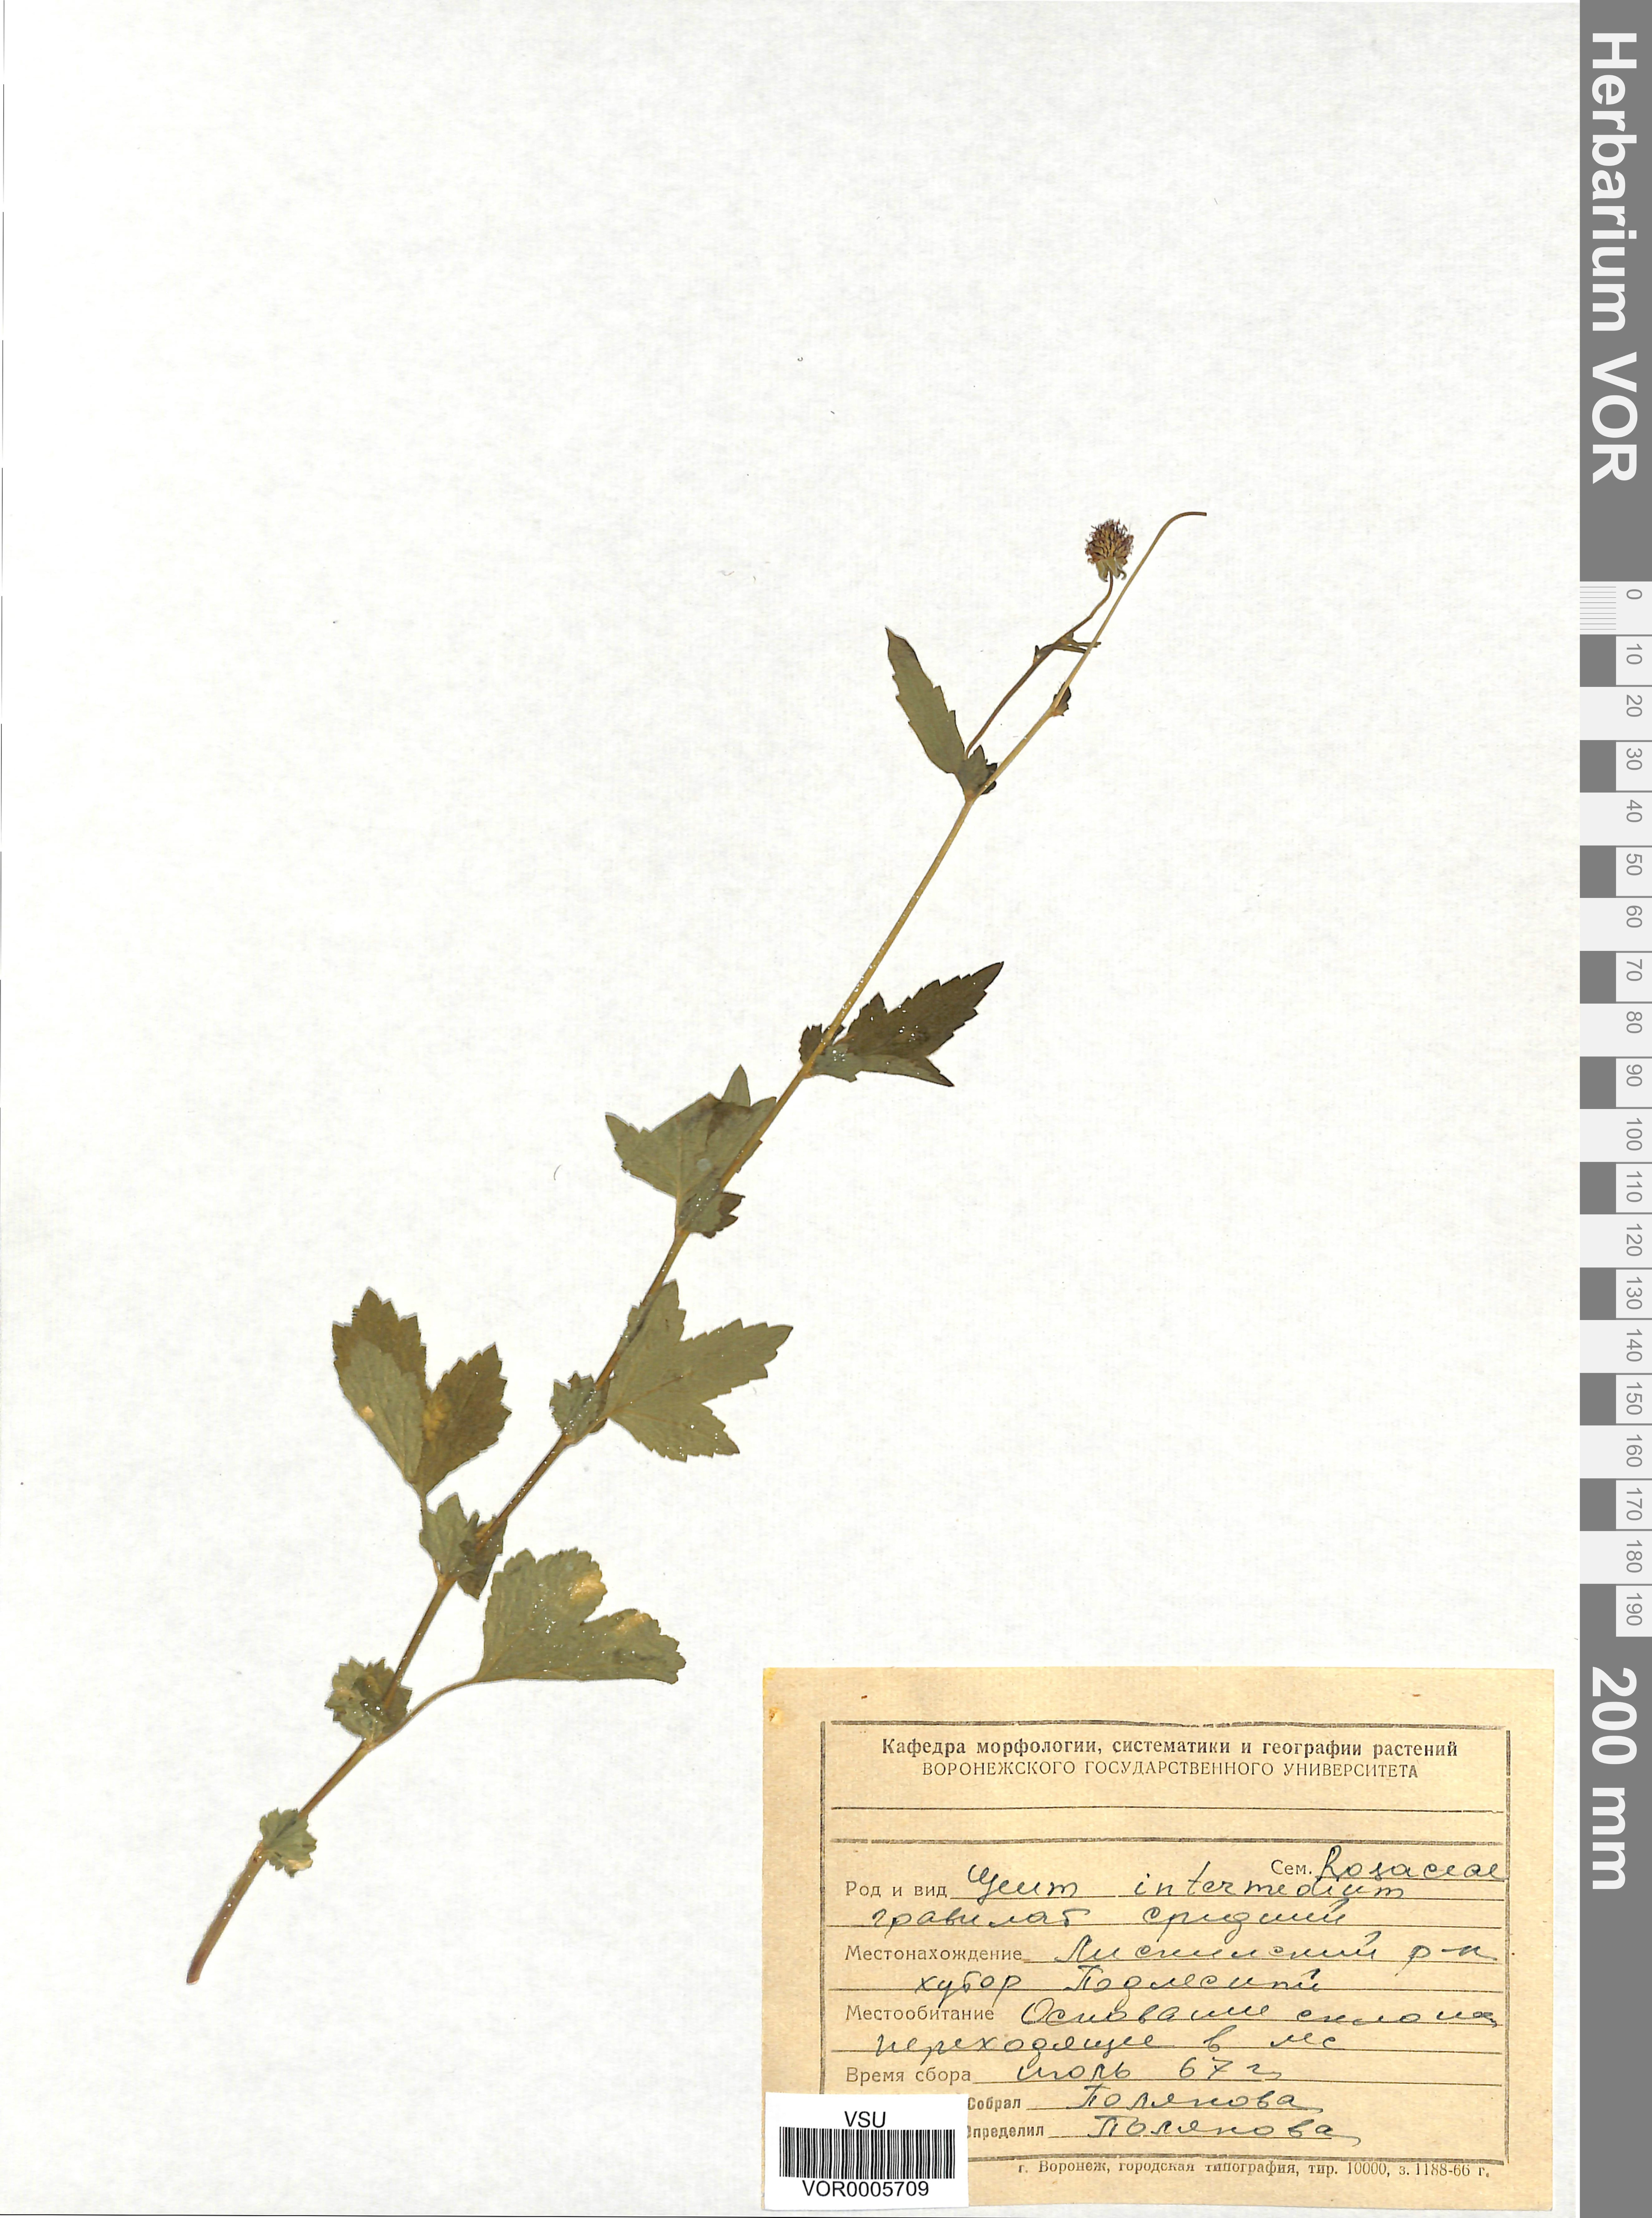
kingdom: Plantae
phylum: Tracheophyta
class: Magnoliopsida
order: Rosales
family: Rosaceae
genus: Geum
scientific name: Geum intermedium
